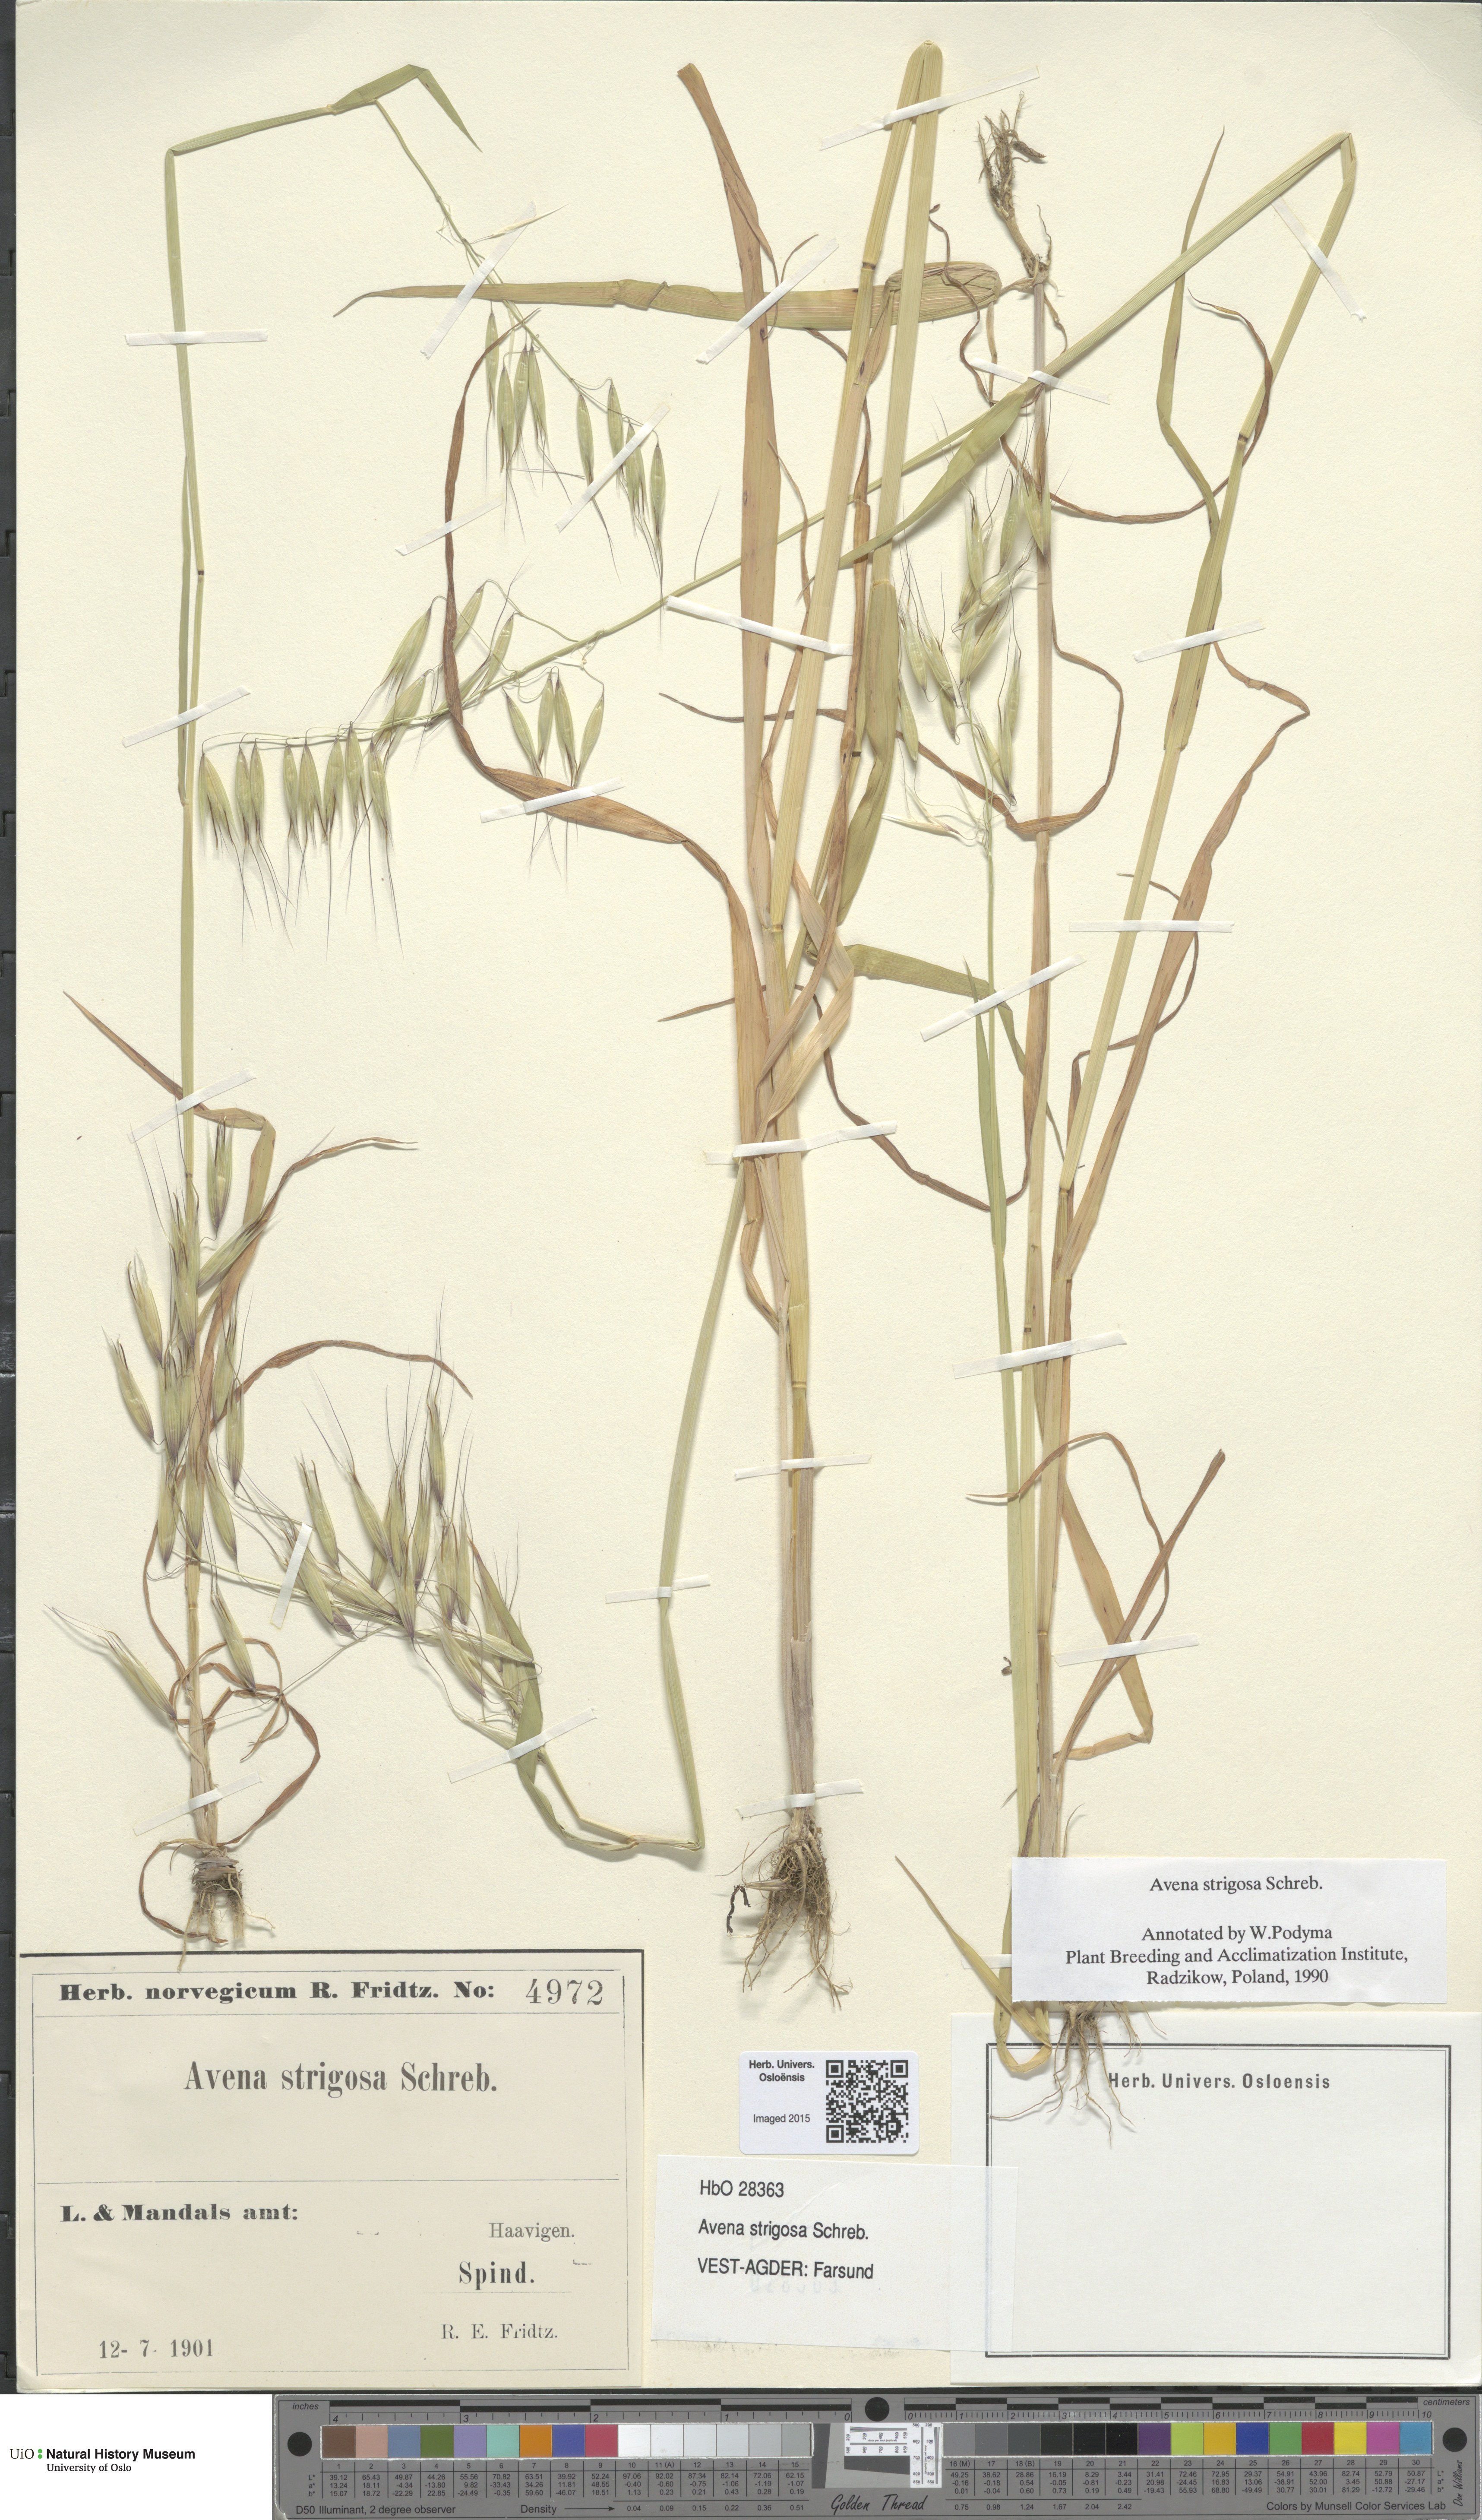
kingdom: Plantae
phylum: Tracheophyta
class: Liliopsida
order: Poales
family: Poaceae
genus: Avena
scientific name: Avena strigosa
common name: Bristle oat
